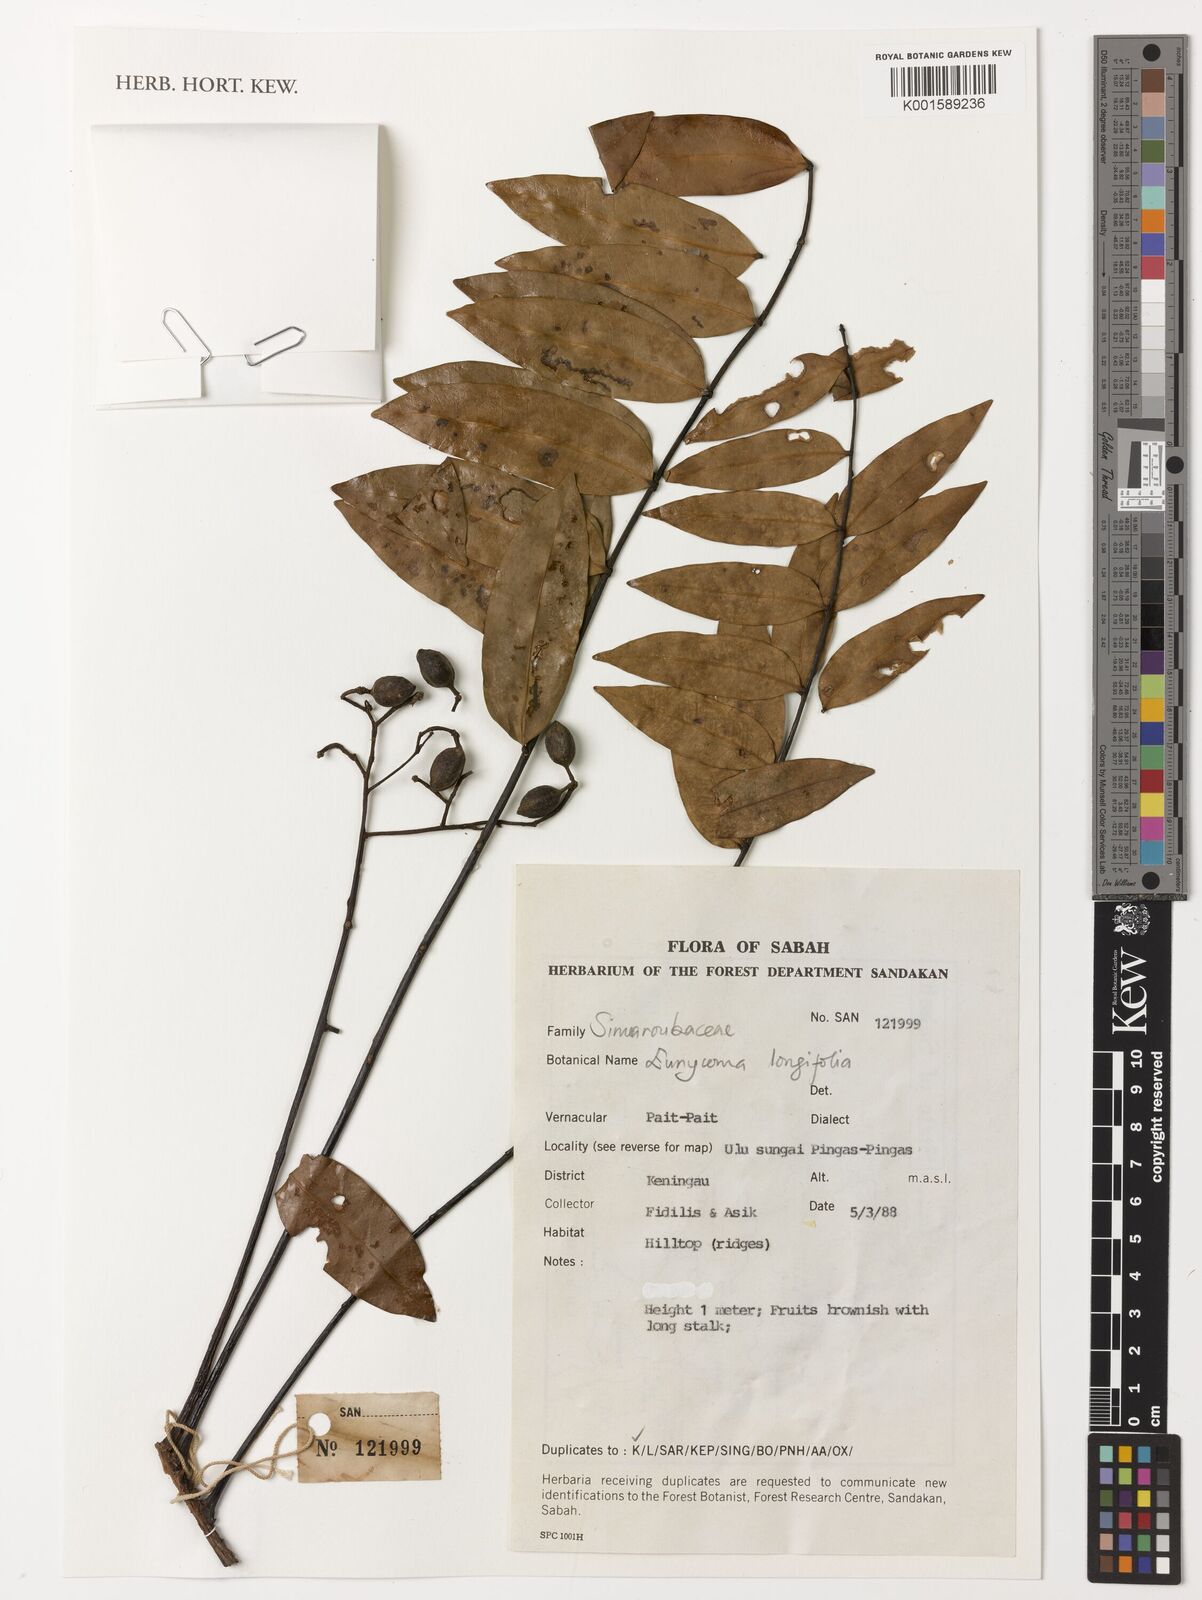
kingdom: Plantae
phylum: Tracheophyta
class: Magnoliopsida
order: Sapindales
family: Simaroubaceae
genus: Eurycoma
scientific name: Eurycoma longifolia
